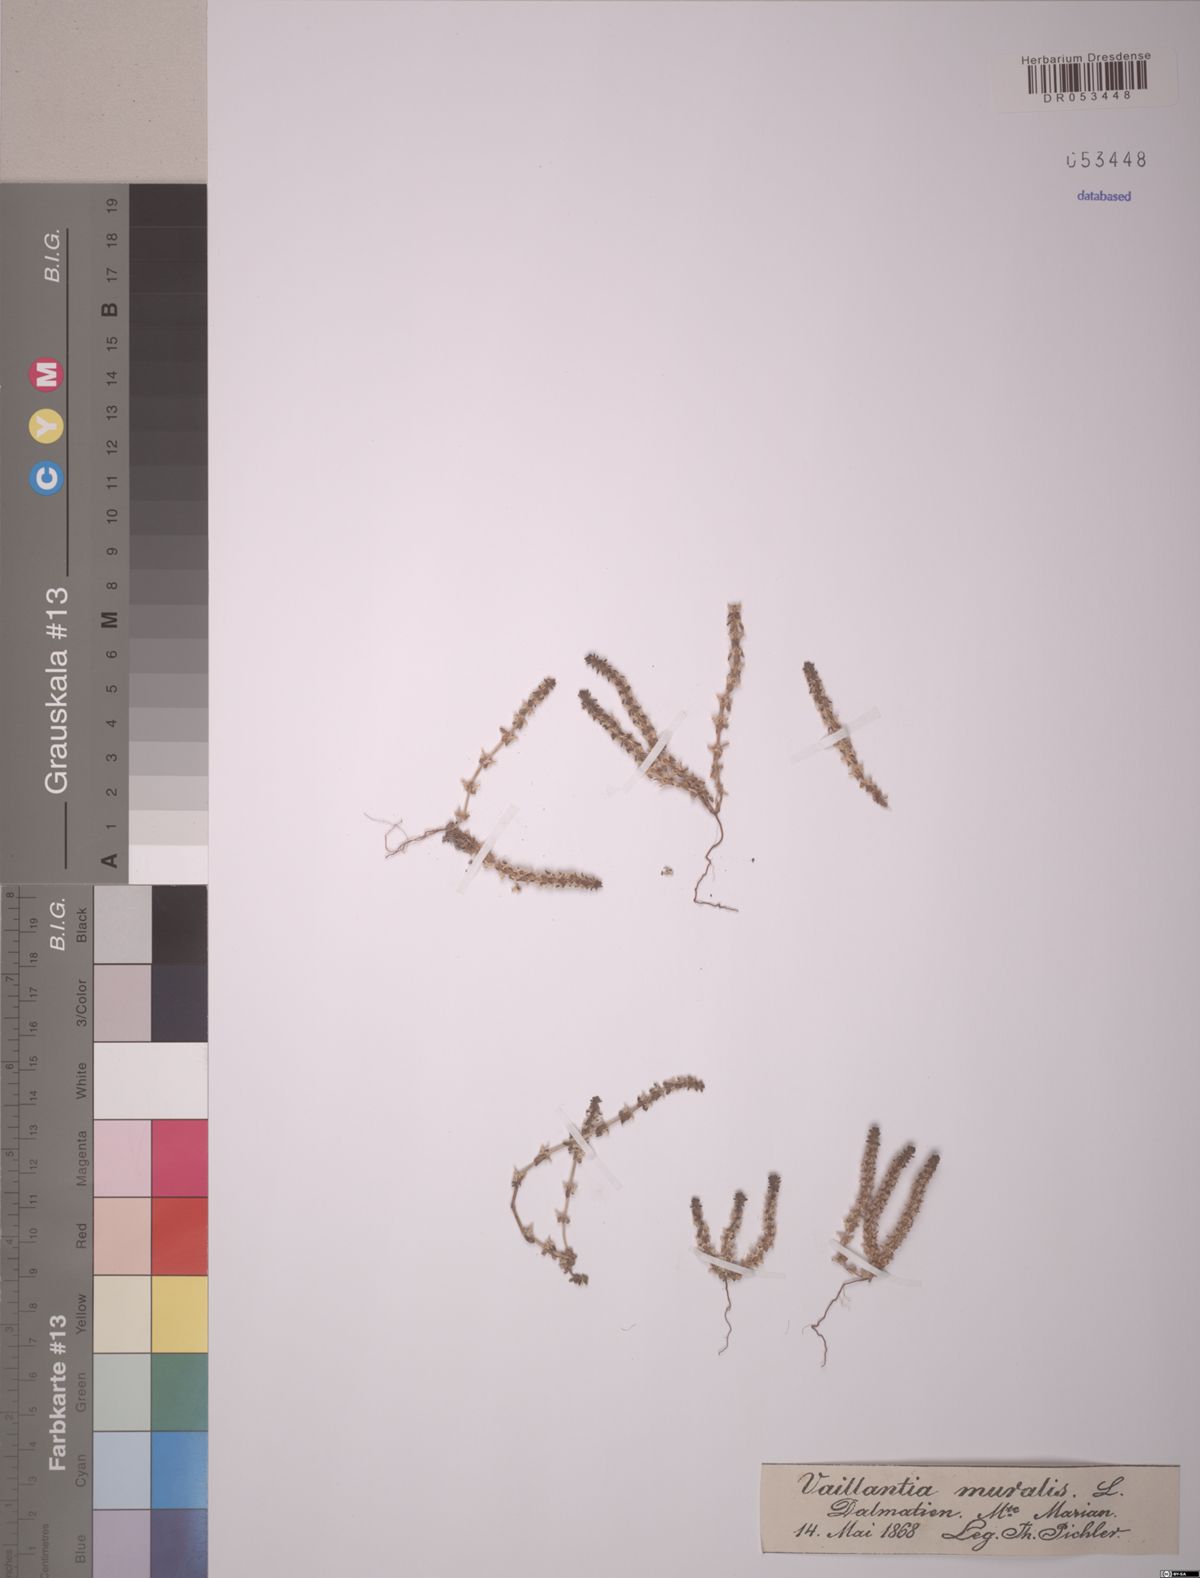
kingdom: Plantae
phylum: Tracheophyta
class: Magnoliopsida
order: Gentianales
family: Rubiaceae
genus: Valantia
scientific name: Valantia muralis
